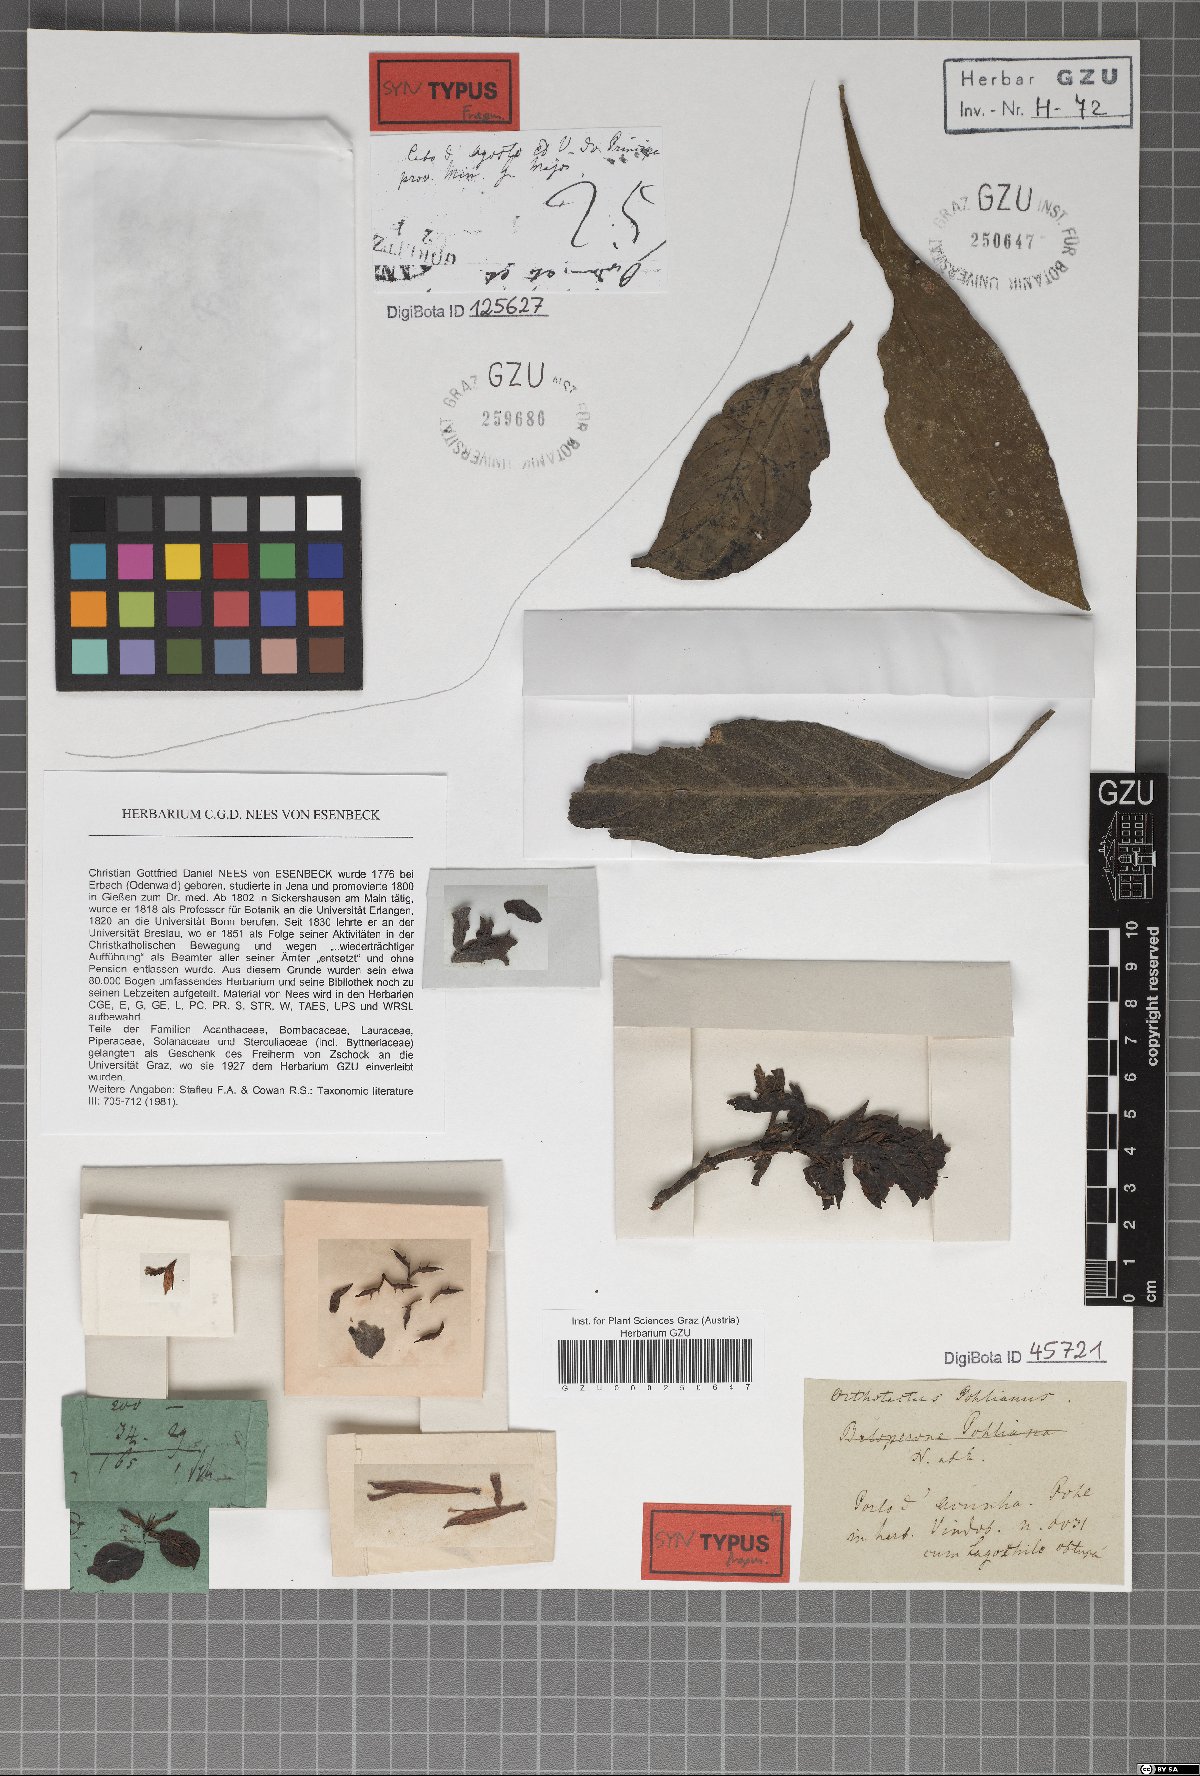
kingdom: Plantae
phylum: Tracheophyta
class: Magnoliopsida
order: Lamiales
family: Acanthaceae
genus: Justicia
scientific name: Justicia carnea
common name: Brazilian-plume
